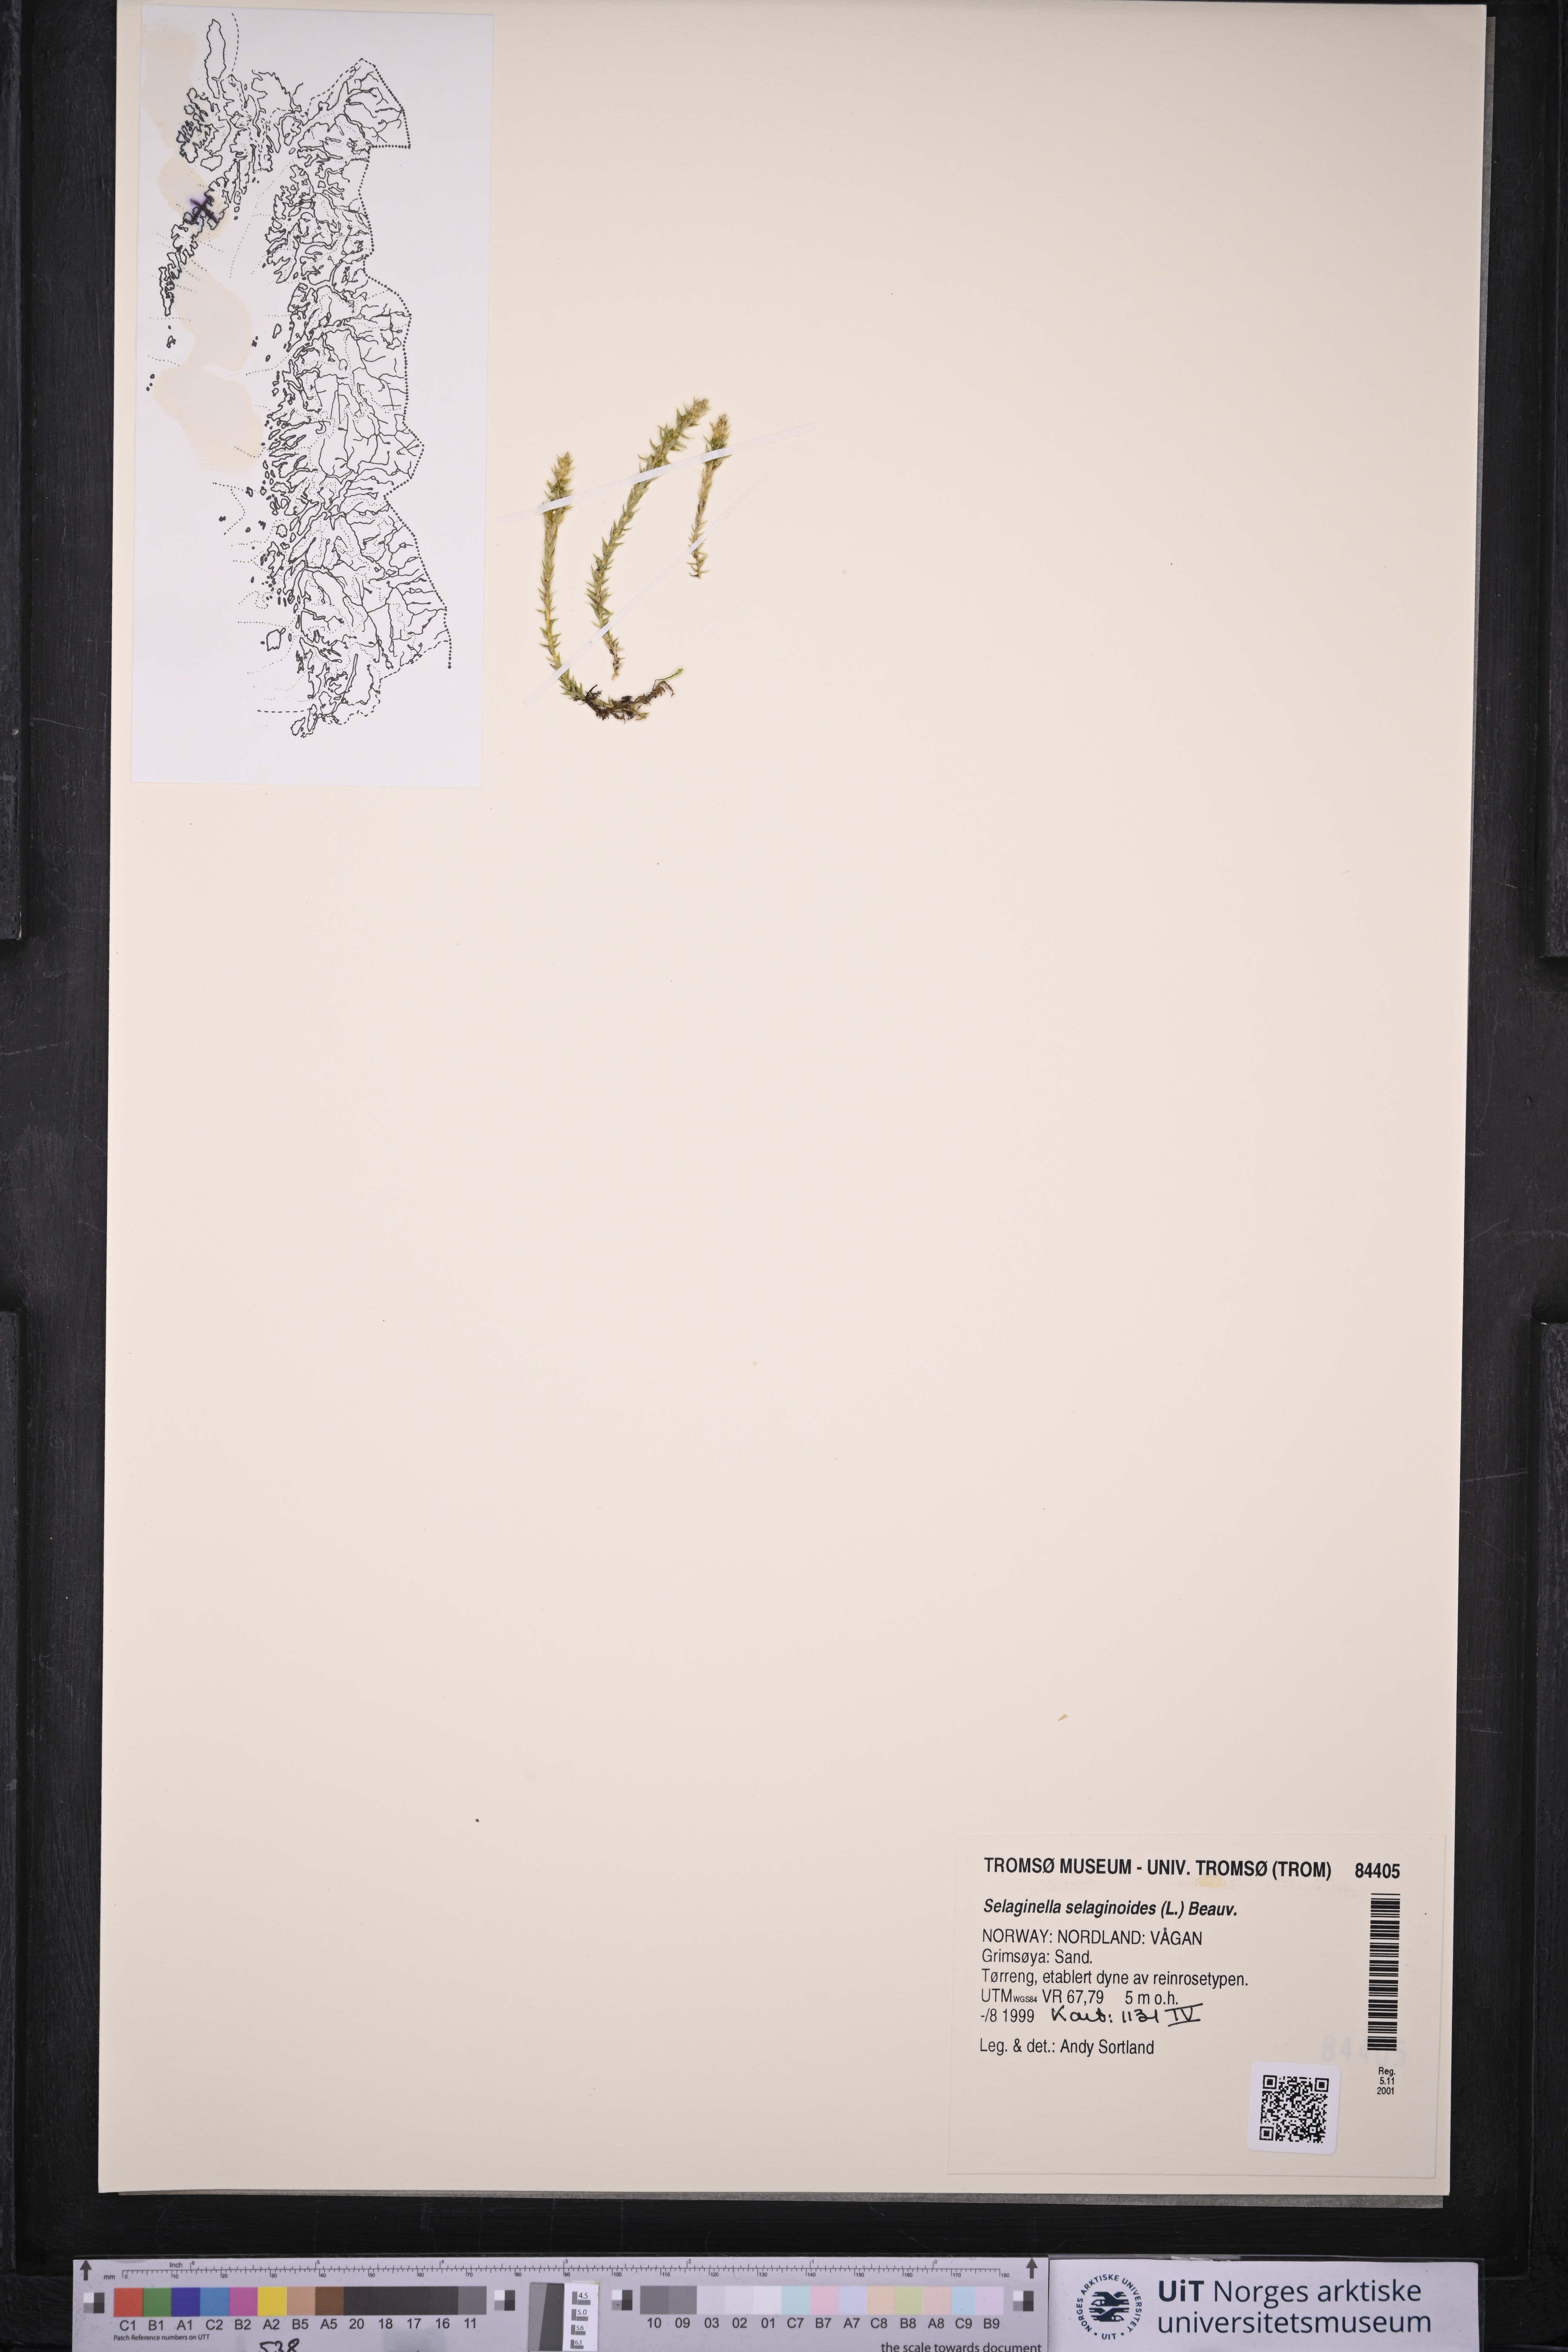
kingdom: Plantae
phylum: Tracheophyta
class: Lycopodiopsida
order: Selaginellales
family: Selaginellaceae
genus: Selaginella
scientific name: Selaginella selaginoides
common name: Prickly mountain-moss
